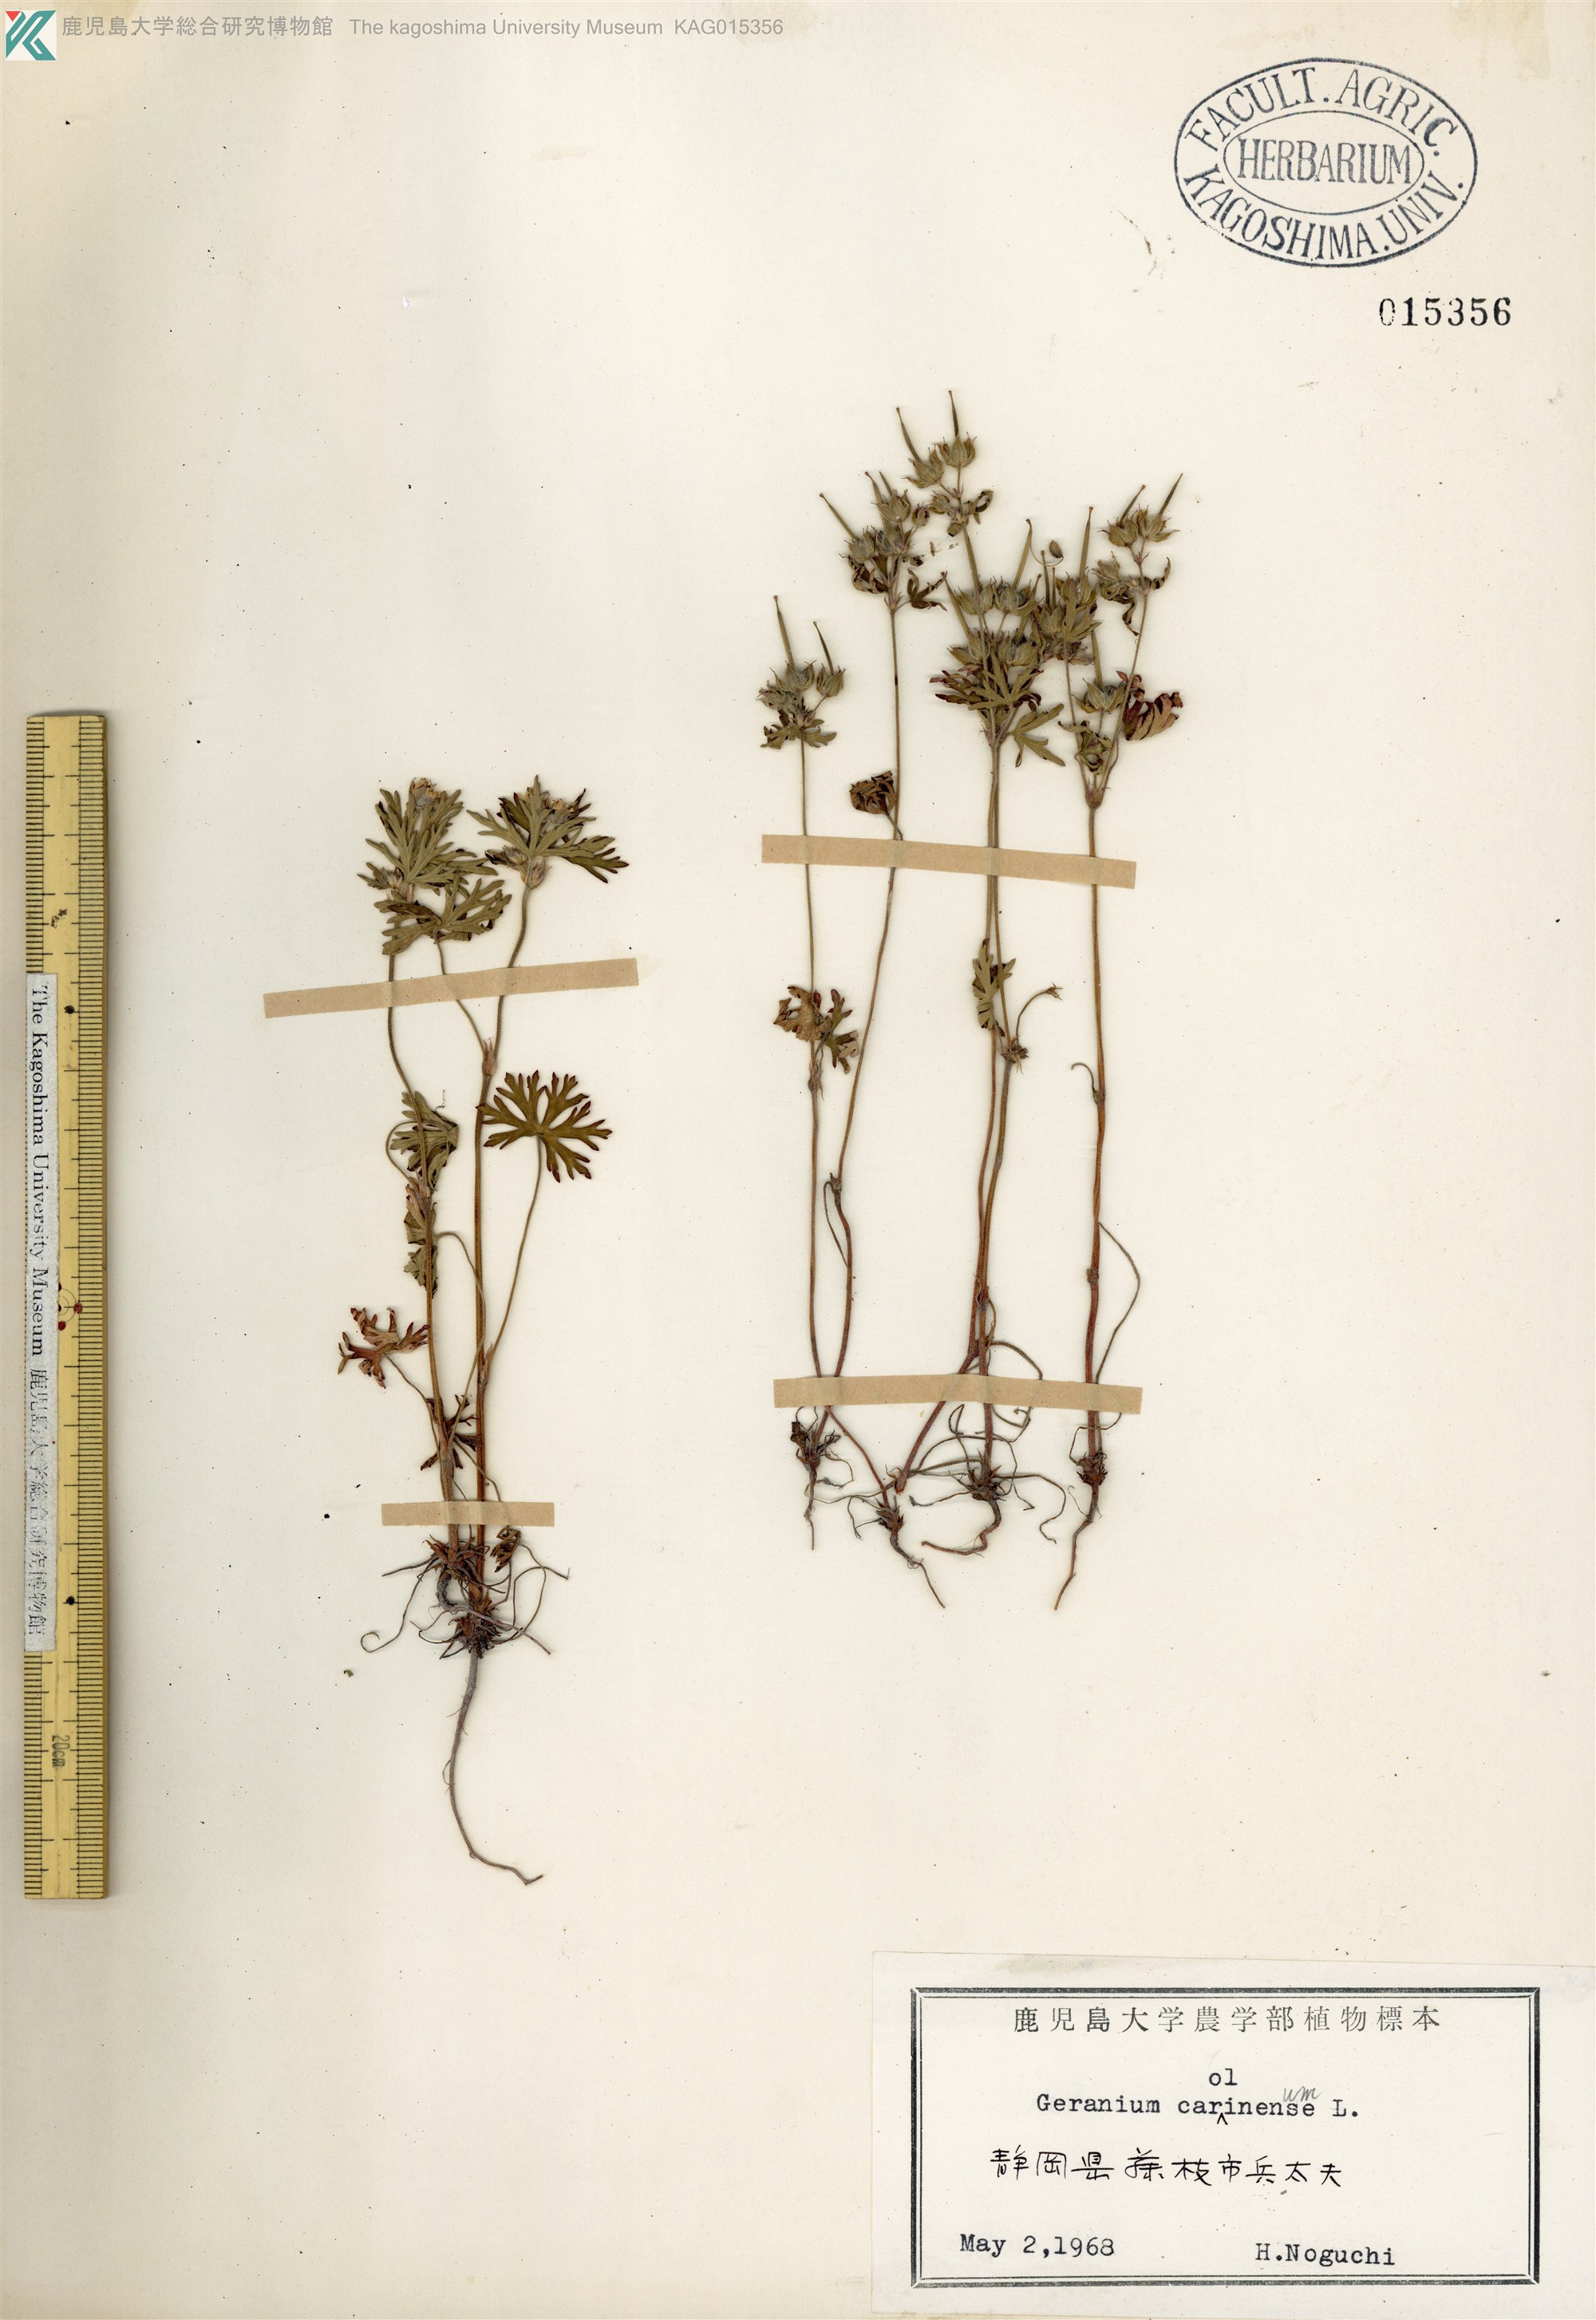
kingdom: Plantae
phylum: Tracheophyta
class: Magnoliopsida
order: Geraniales
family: Geraniaceae
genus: Geranium
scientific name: Geranium carolinianum
